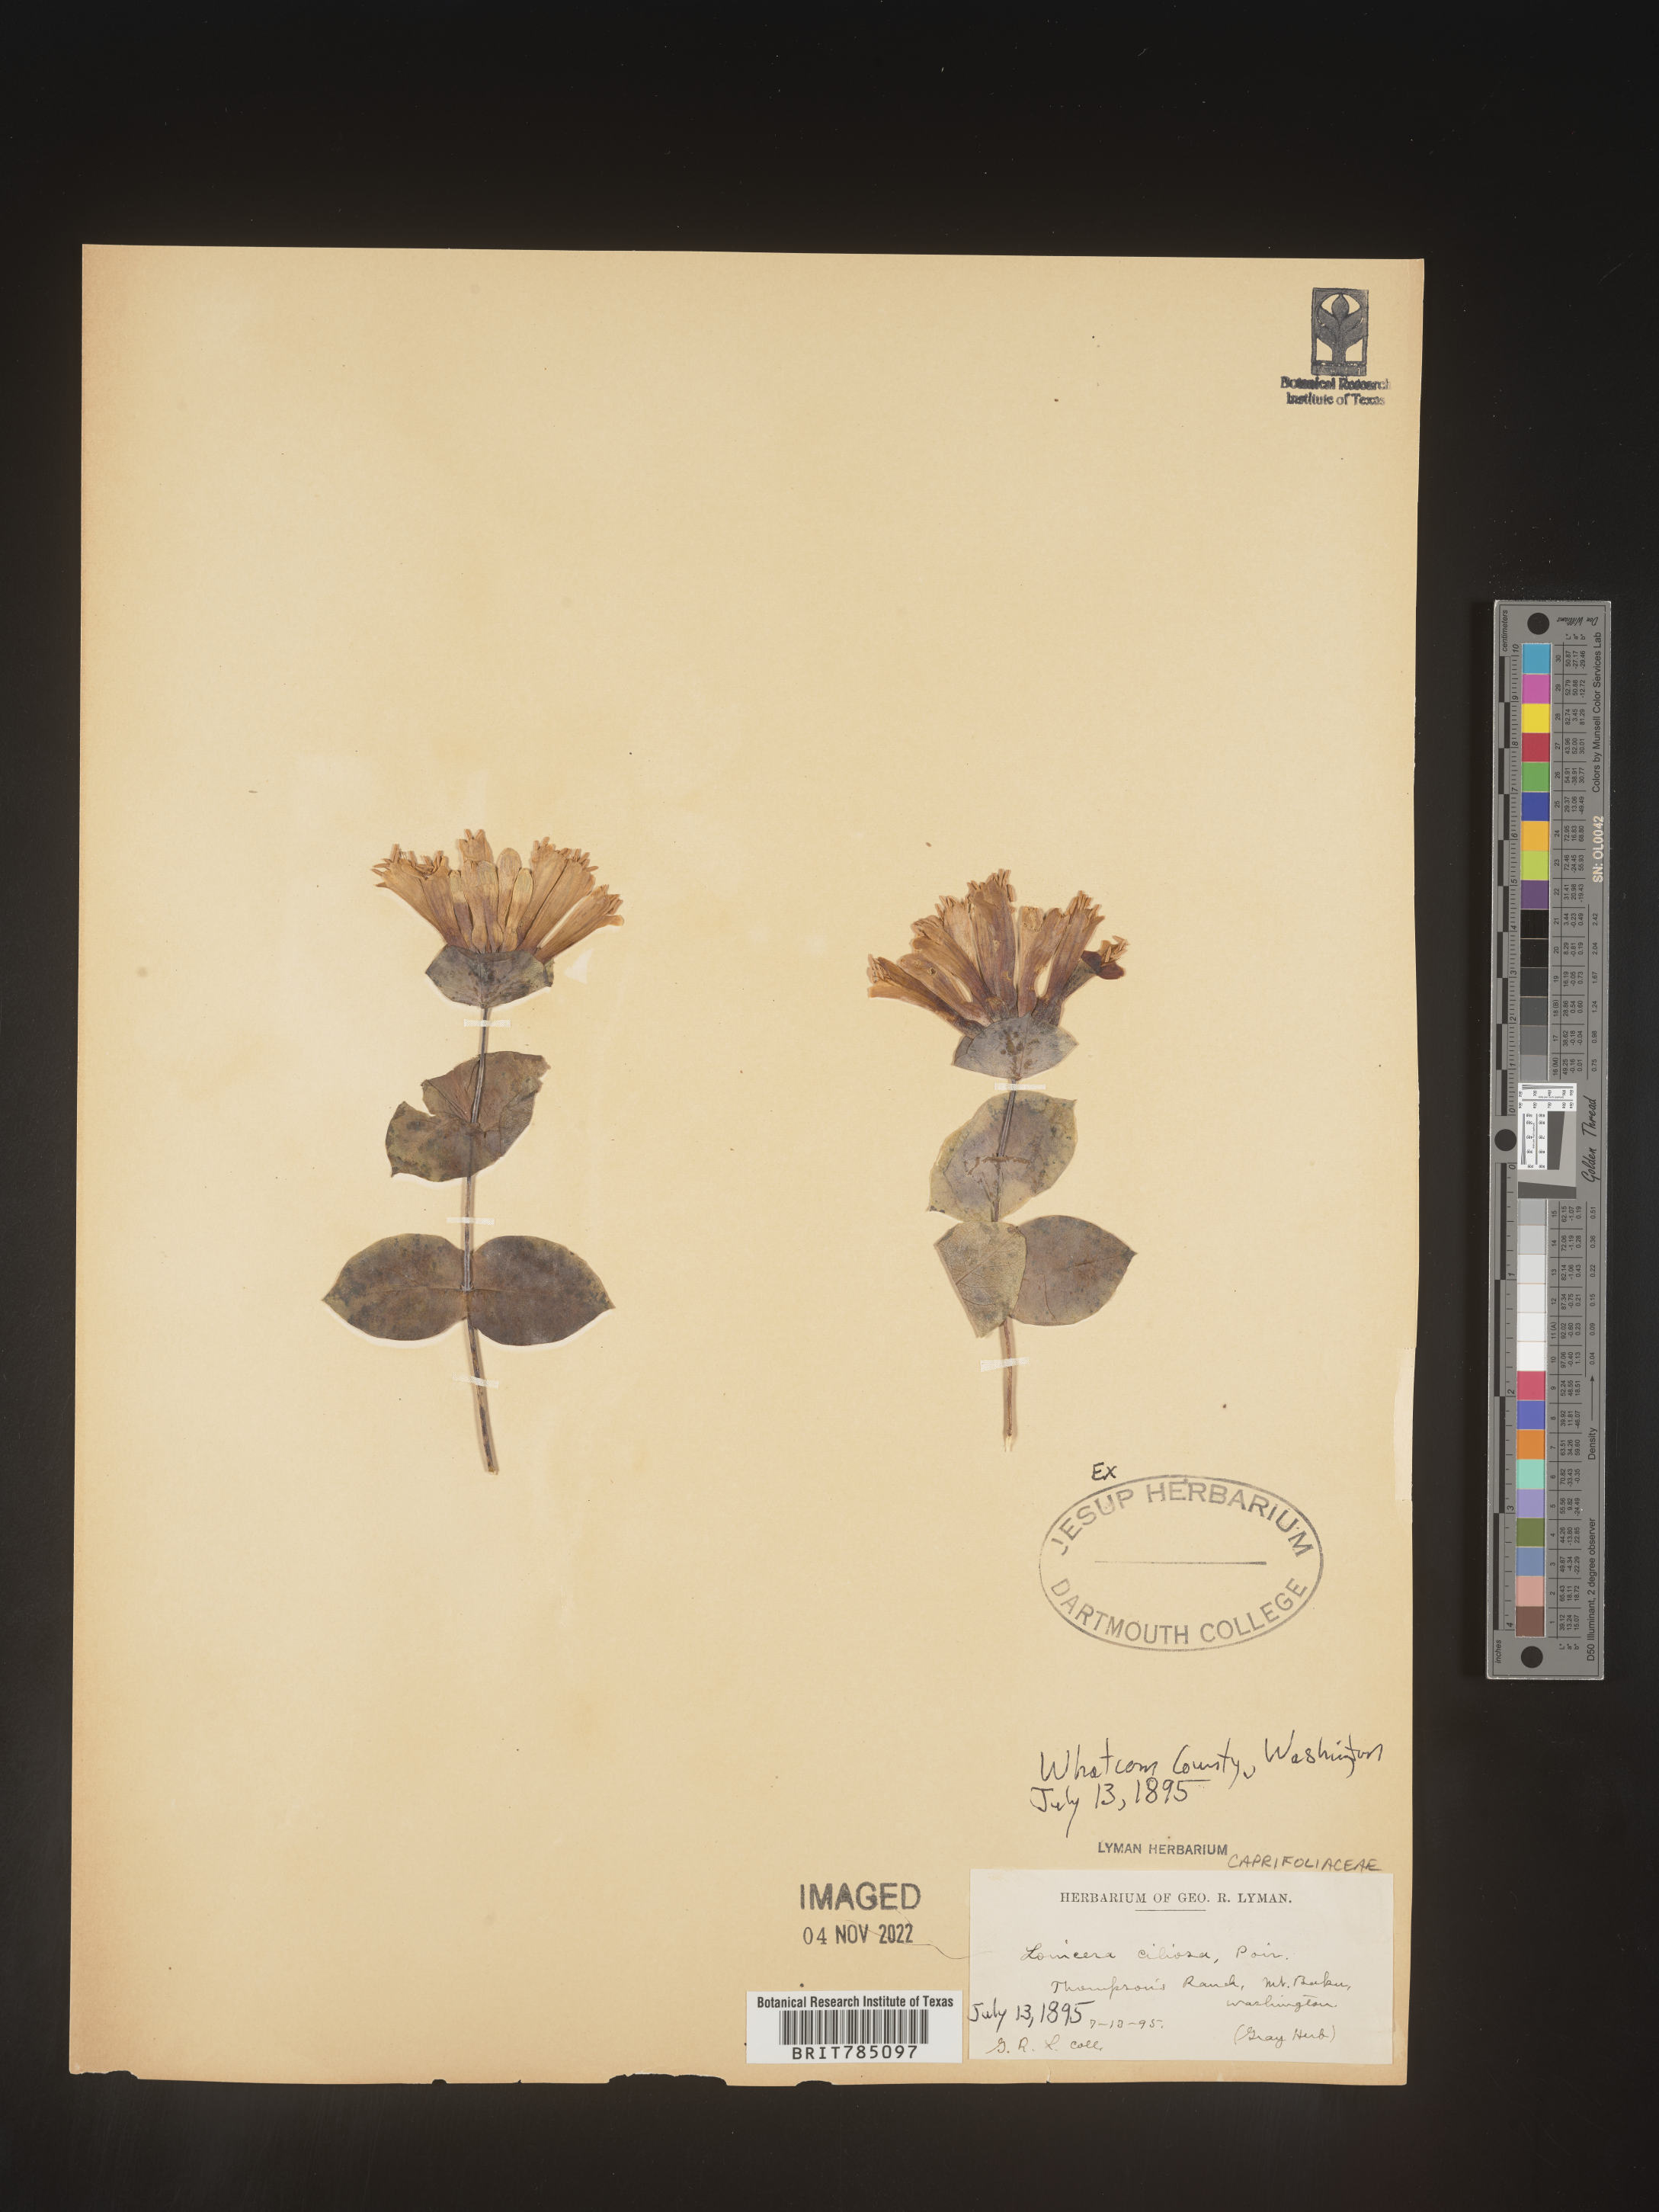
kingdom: Plantae
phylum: Tracheophyta
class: Magnoliopsida
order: Dipsacales
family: Caprifoliaceae
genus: Lonicera
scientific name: Lonicera
